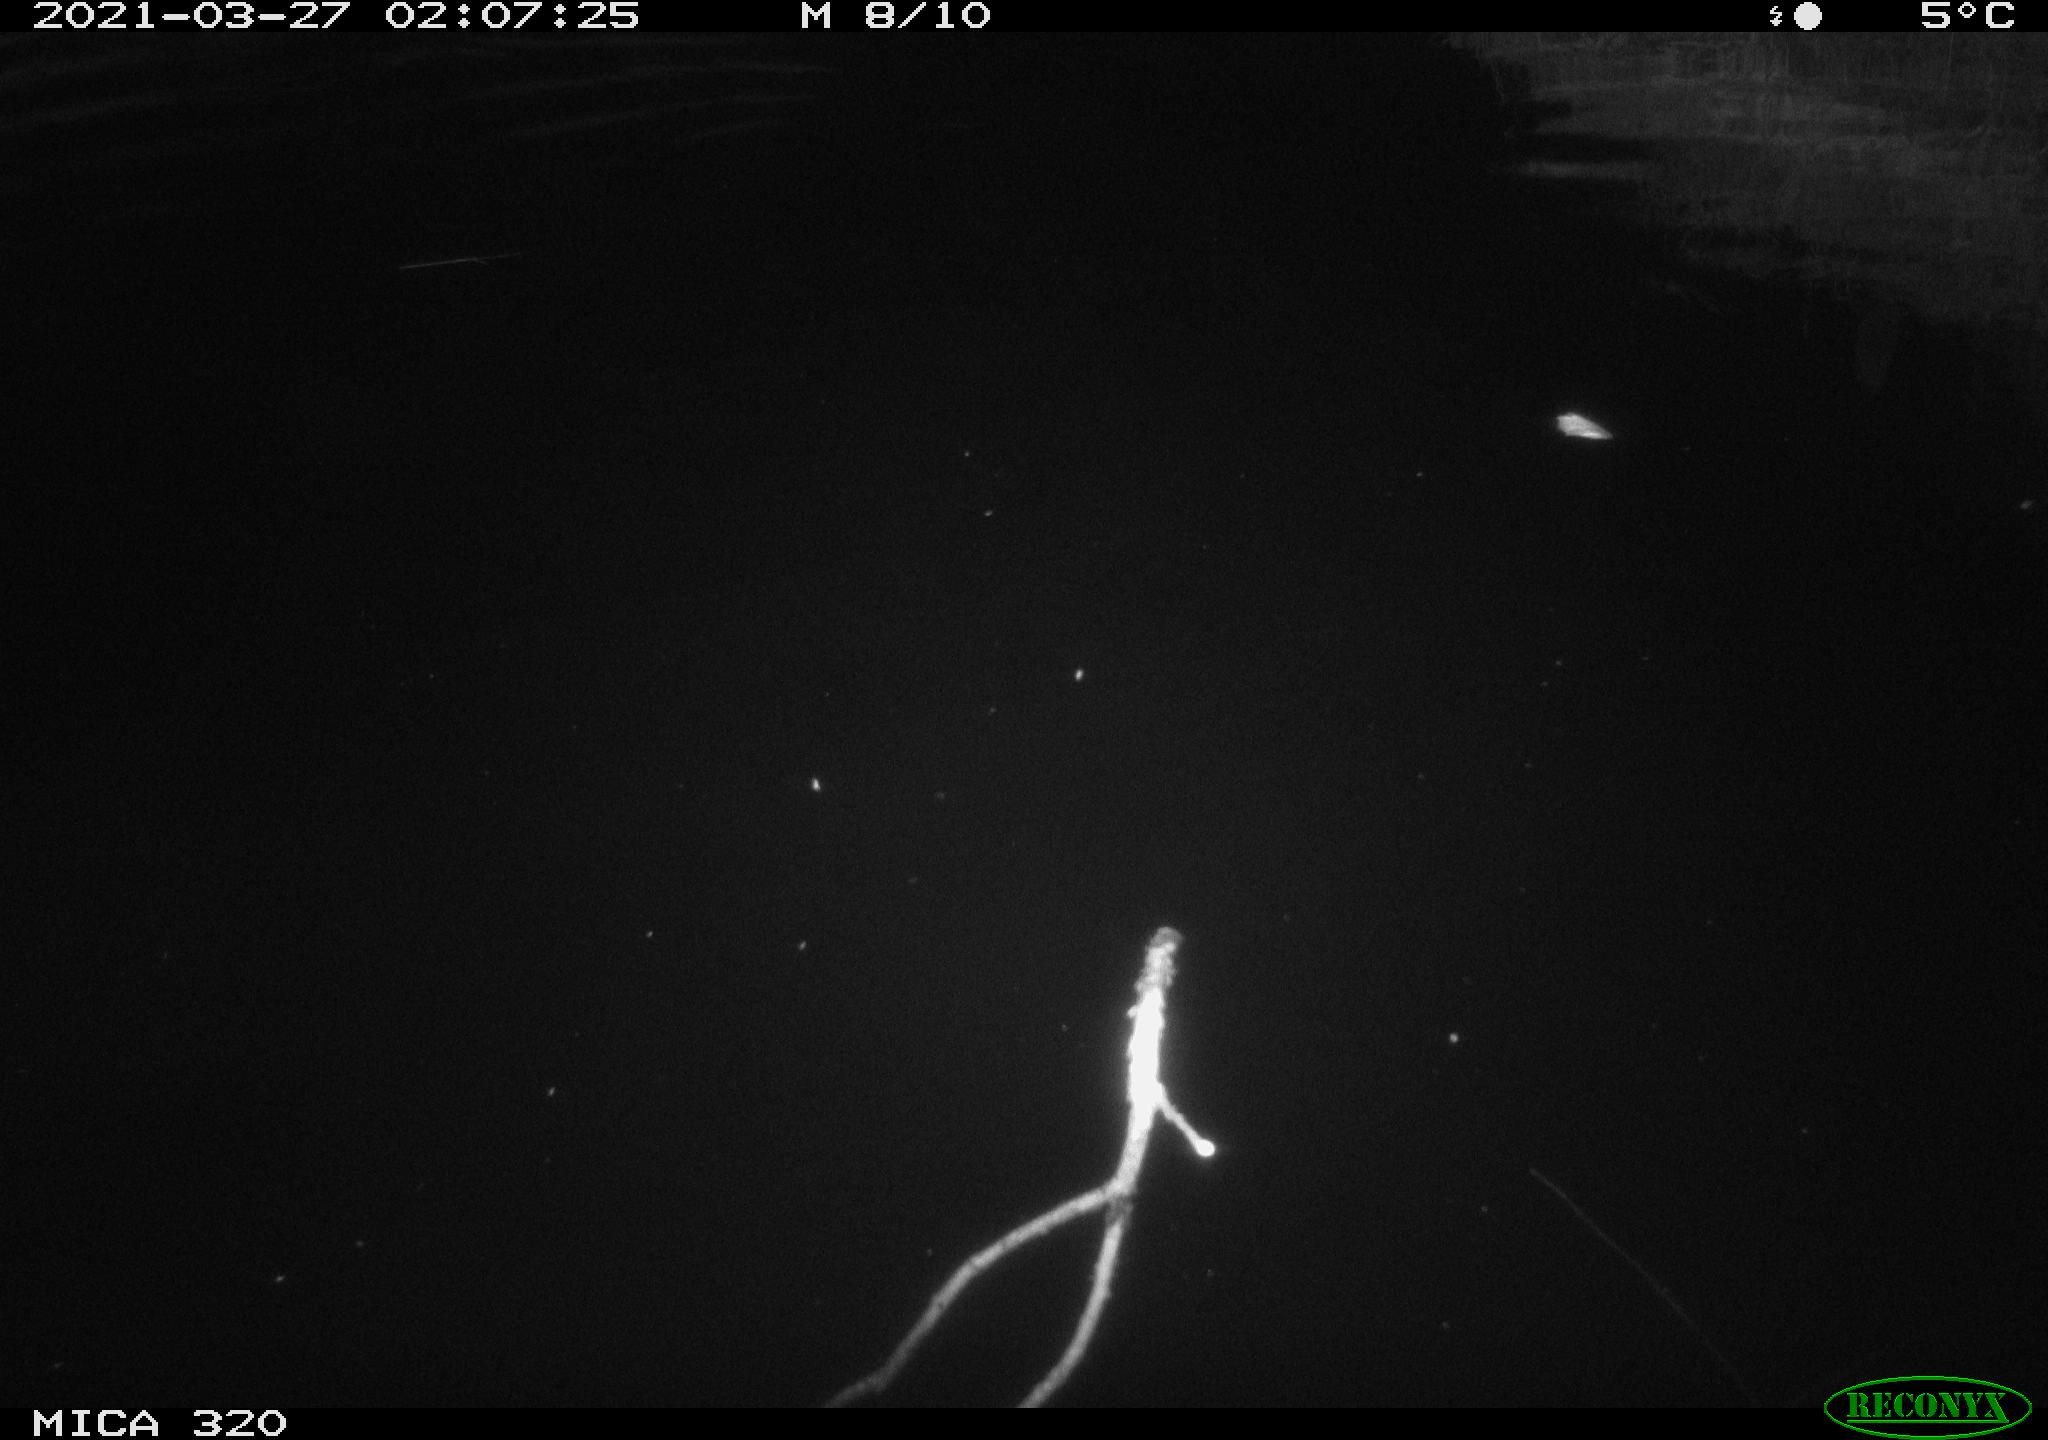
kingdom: Animalia
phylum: Chordata
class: Aves
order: Anseriformes
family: Anatidae
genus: Anas
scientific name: Anas platyrhynchos
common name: Mallard
